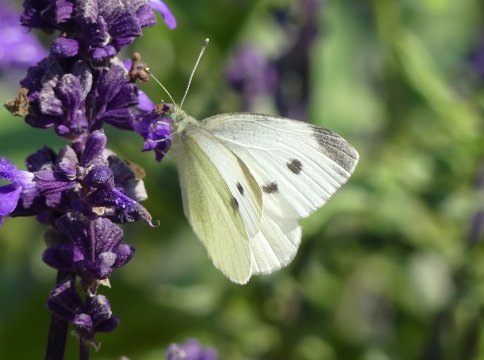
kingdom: Animalia
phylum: Arthropoda
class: Insecta
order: Lepidoptera
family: Pieridae
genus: Pieris
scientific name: Pieris rapae
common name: Cabbage White
